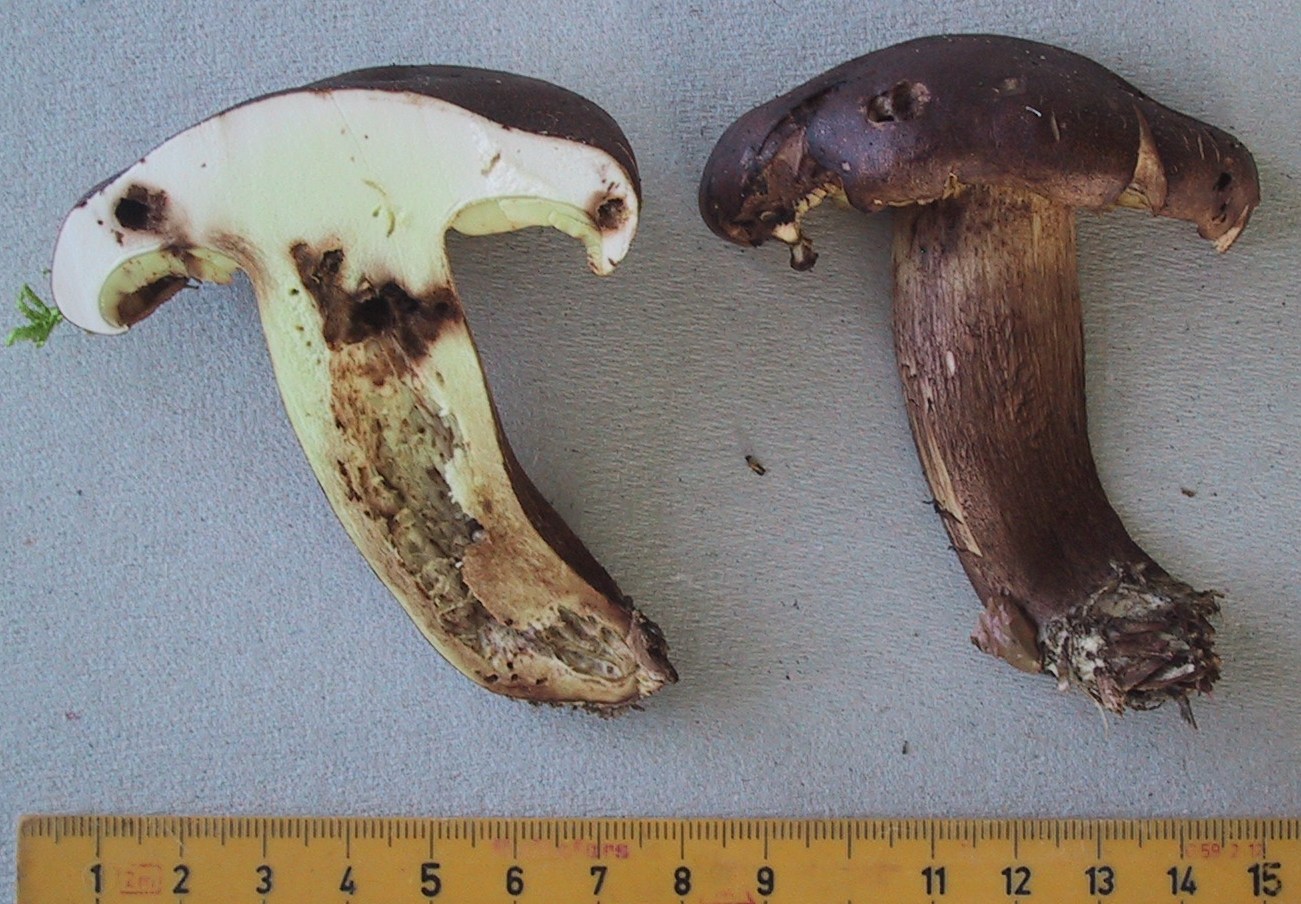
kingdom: Fungi
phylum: Basidiomycota
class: Agaricomycetes
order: Agaricales
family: Tricholomataceae
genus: Tricholoma
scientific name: Tricholoma fulvum
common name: birke-ridderhat
